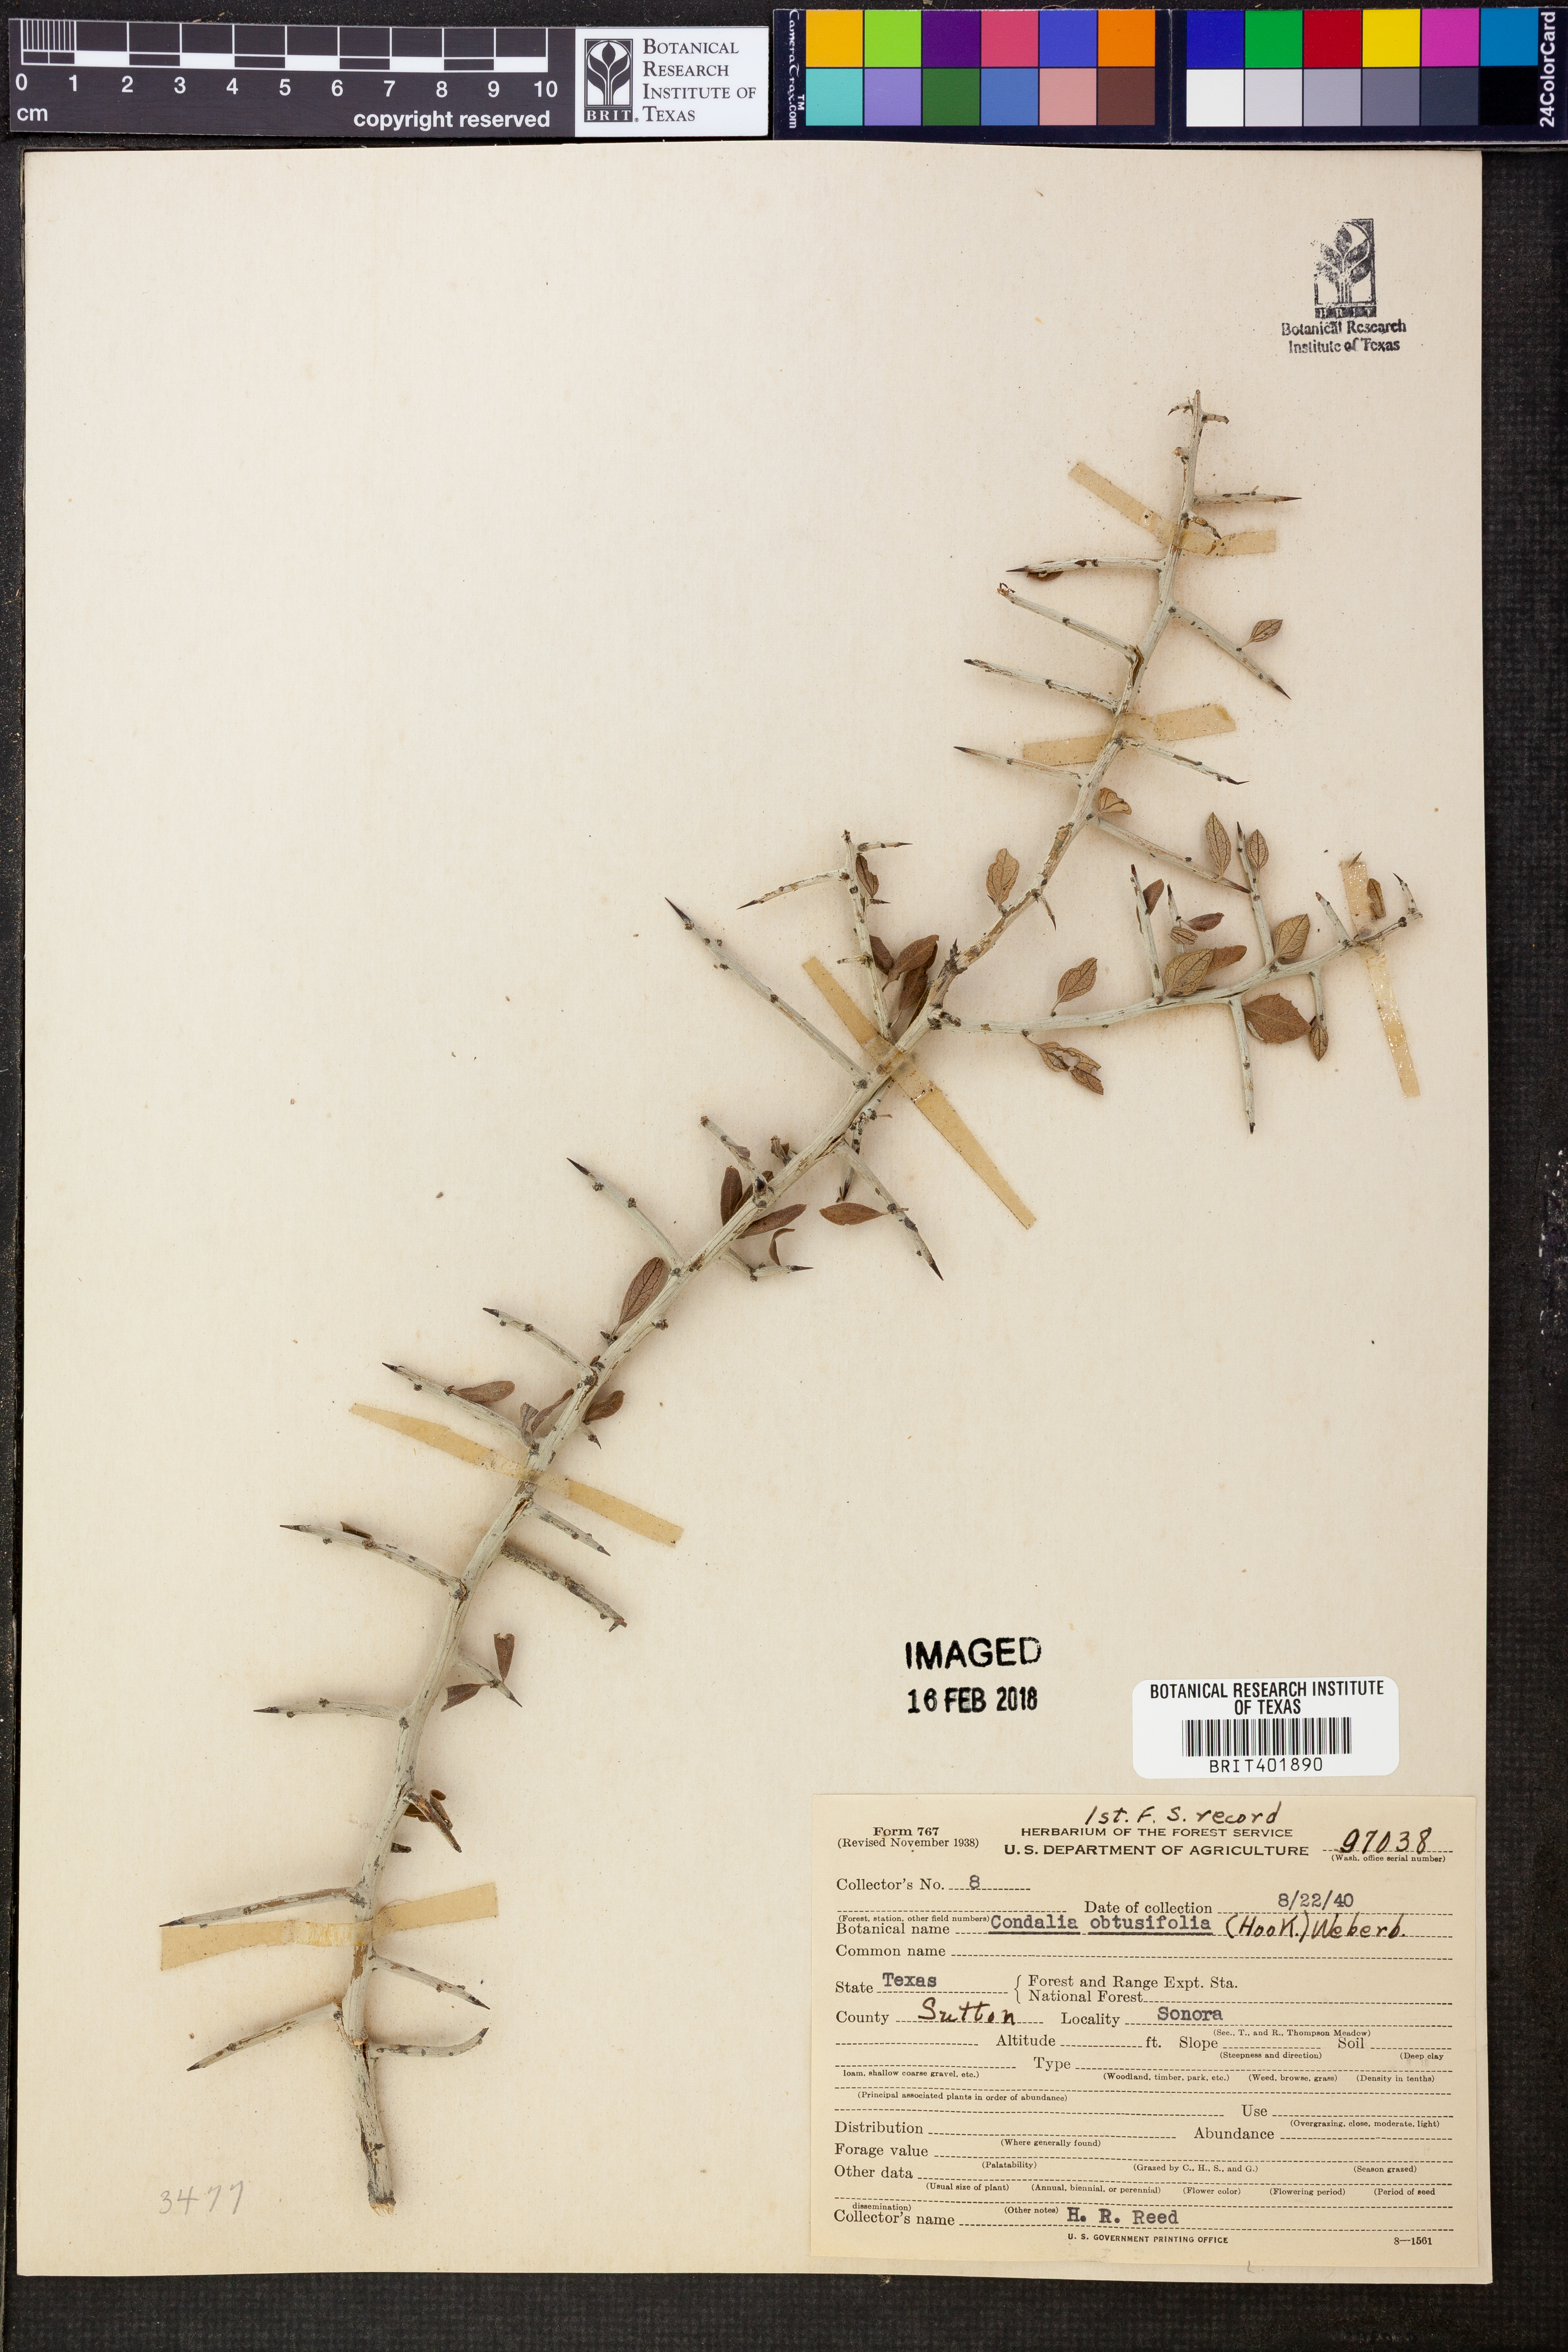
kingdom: Plantae
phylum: Tracheophyta
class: Magnoliopsida
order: Rosales
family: Rhamnaceae
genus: Sarcomphalus
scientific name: Sarcomphalus obtusifolius
